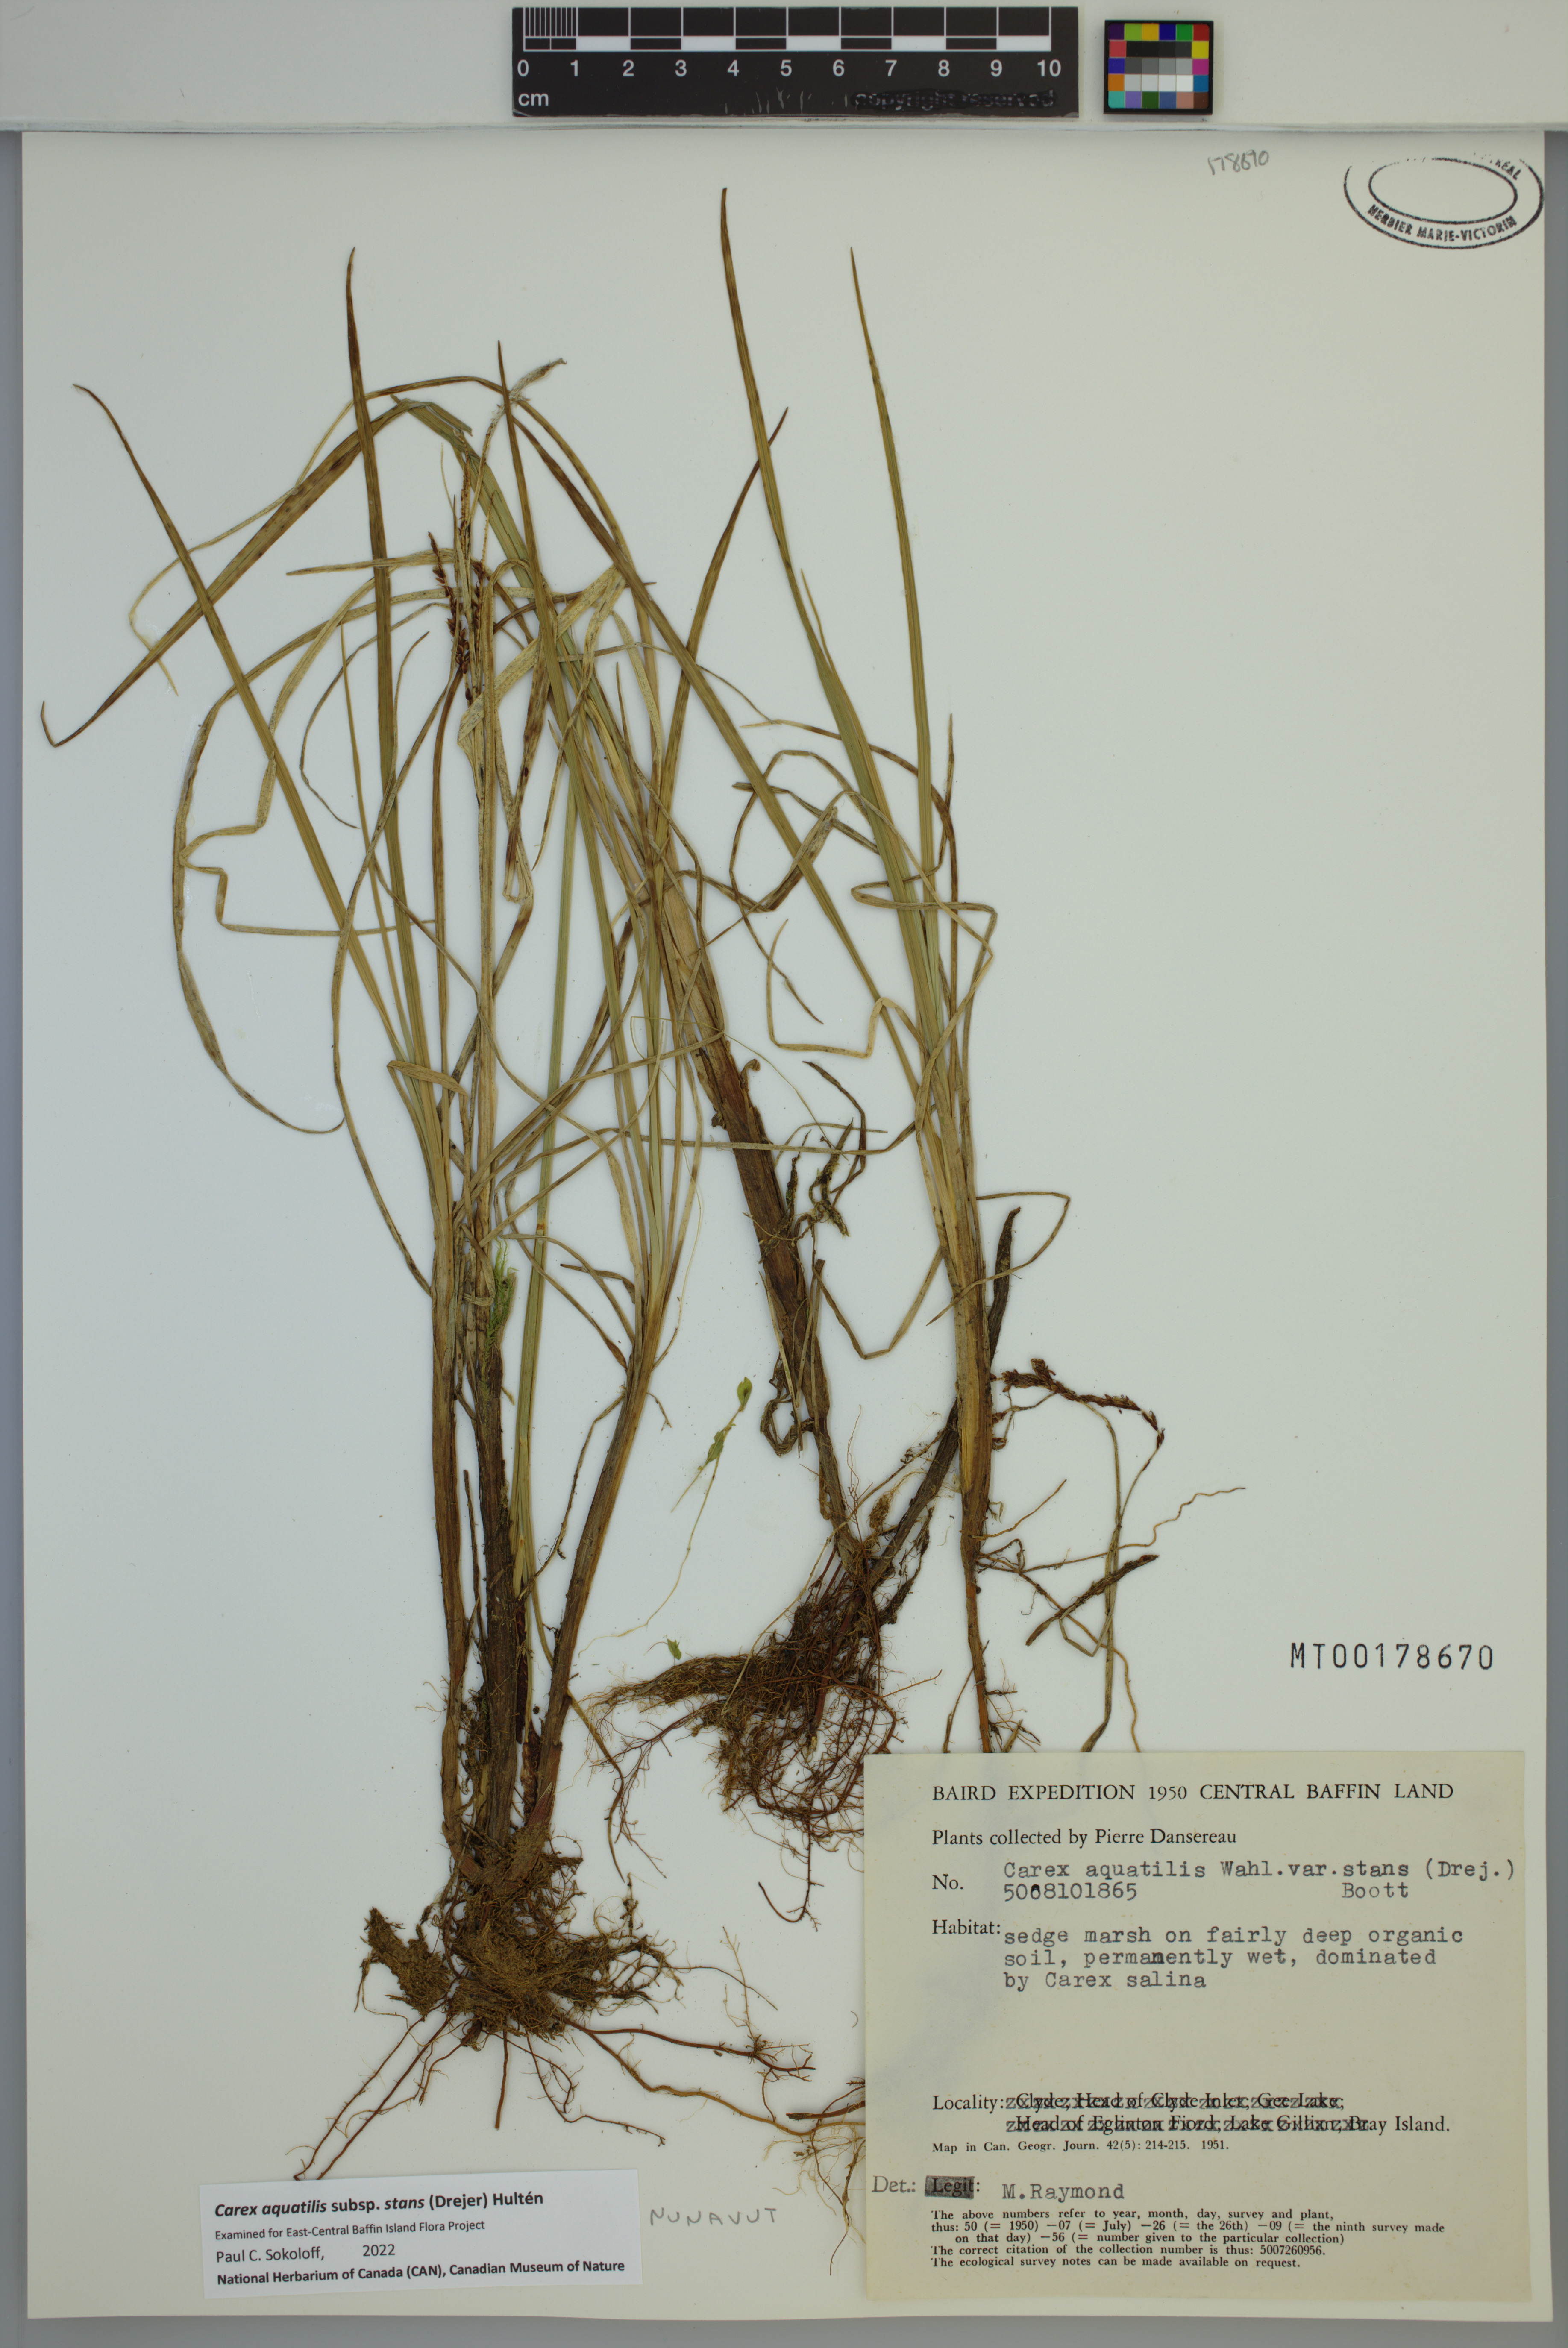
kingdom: Plantae
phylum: Tracheophyta
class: Liliopsida
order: Poales
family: Cyperaceae
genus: Carex
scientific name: Carex aquatilis
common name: Water sedge
